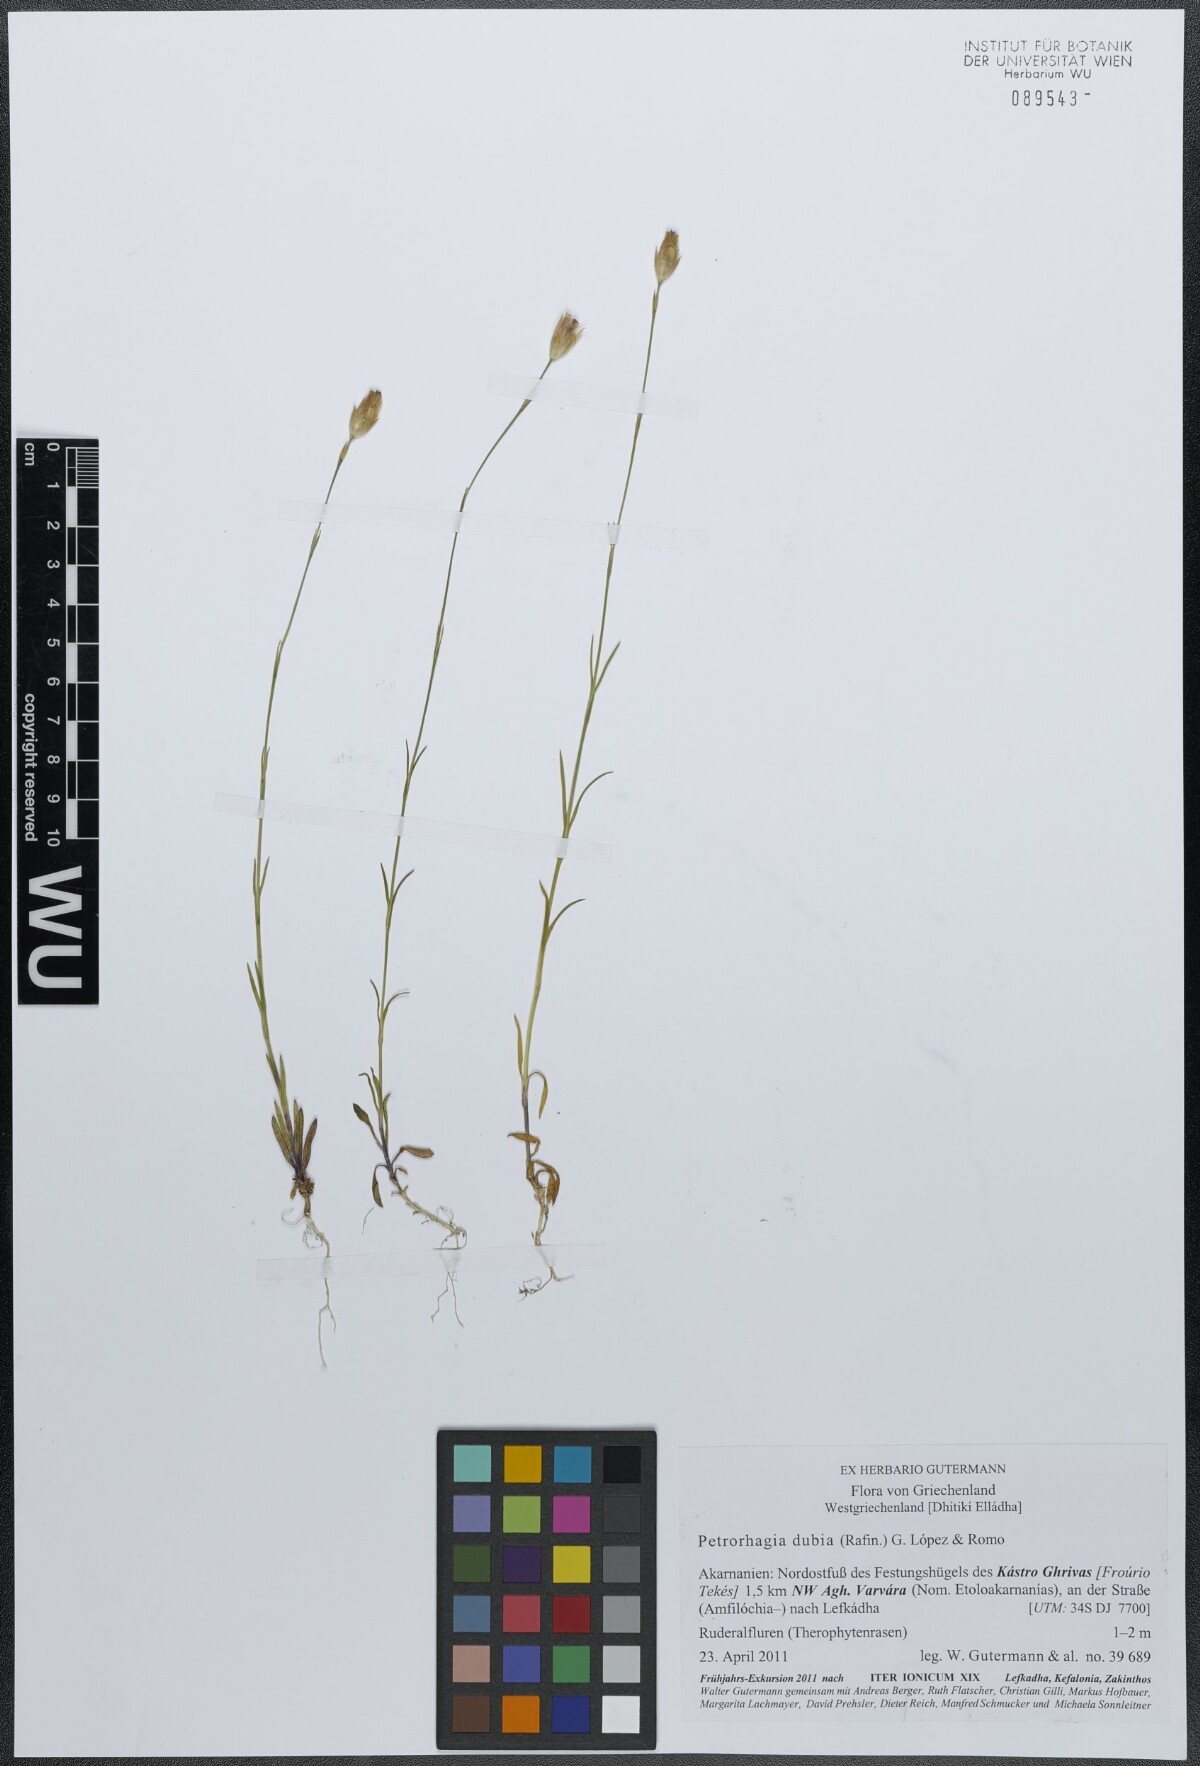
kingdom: Plantae
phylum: Tracheophyta
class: Magnoliopsida
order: Caryophyllales
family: Caryophyllaceae
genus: Petrorhagia
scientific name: Petrorhagia dubia
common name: Hairypink
